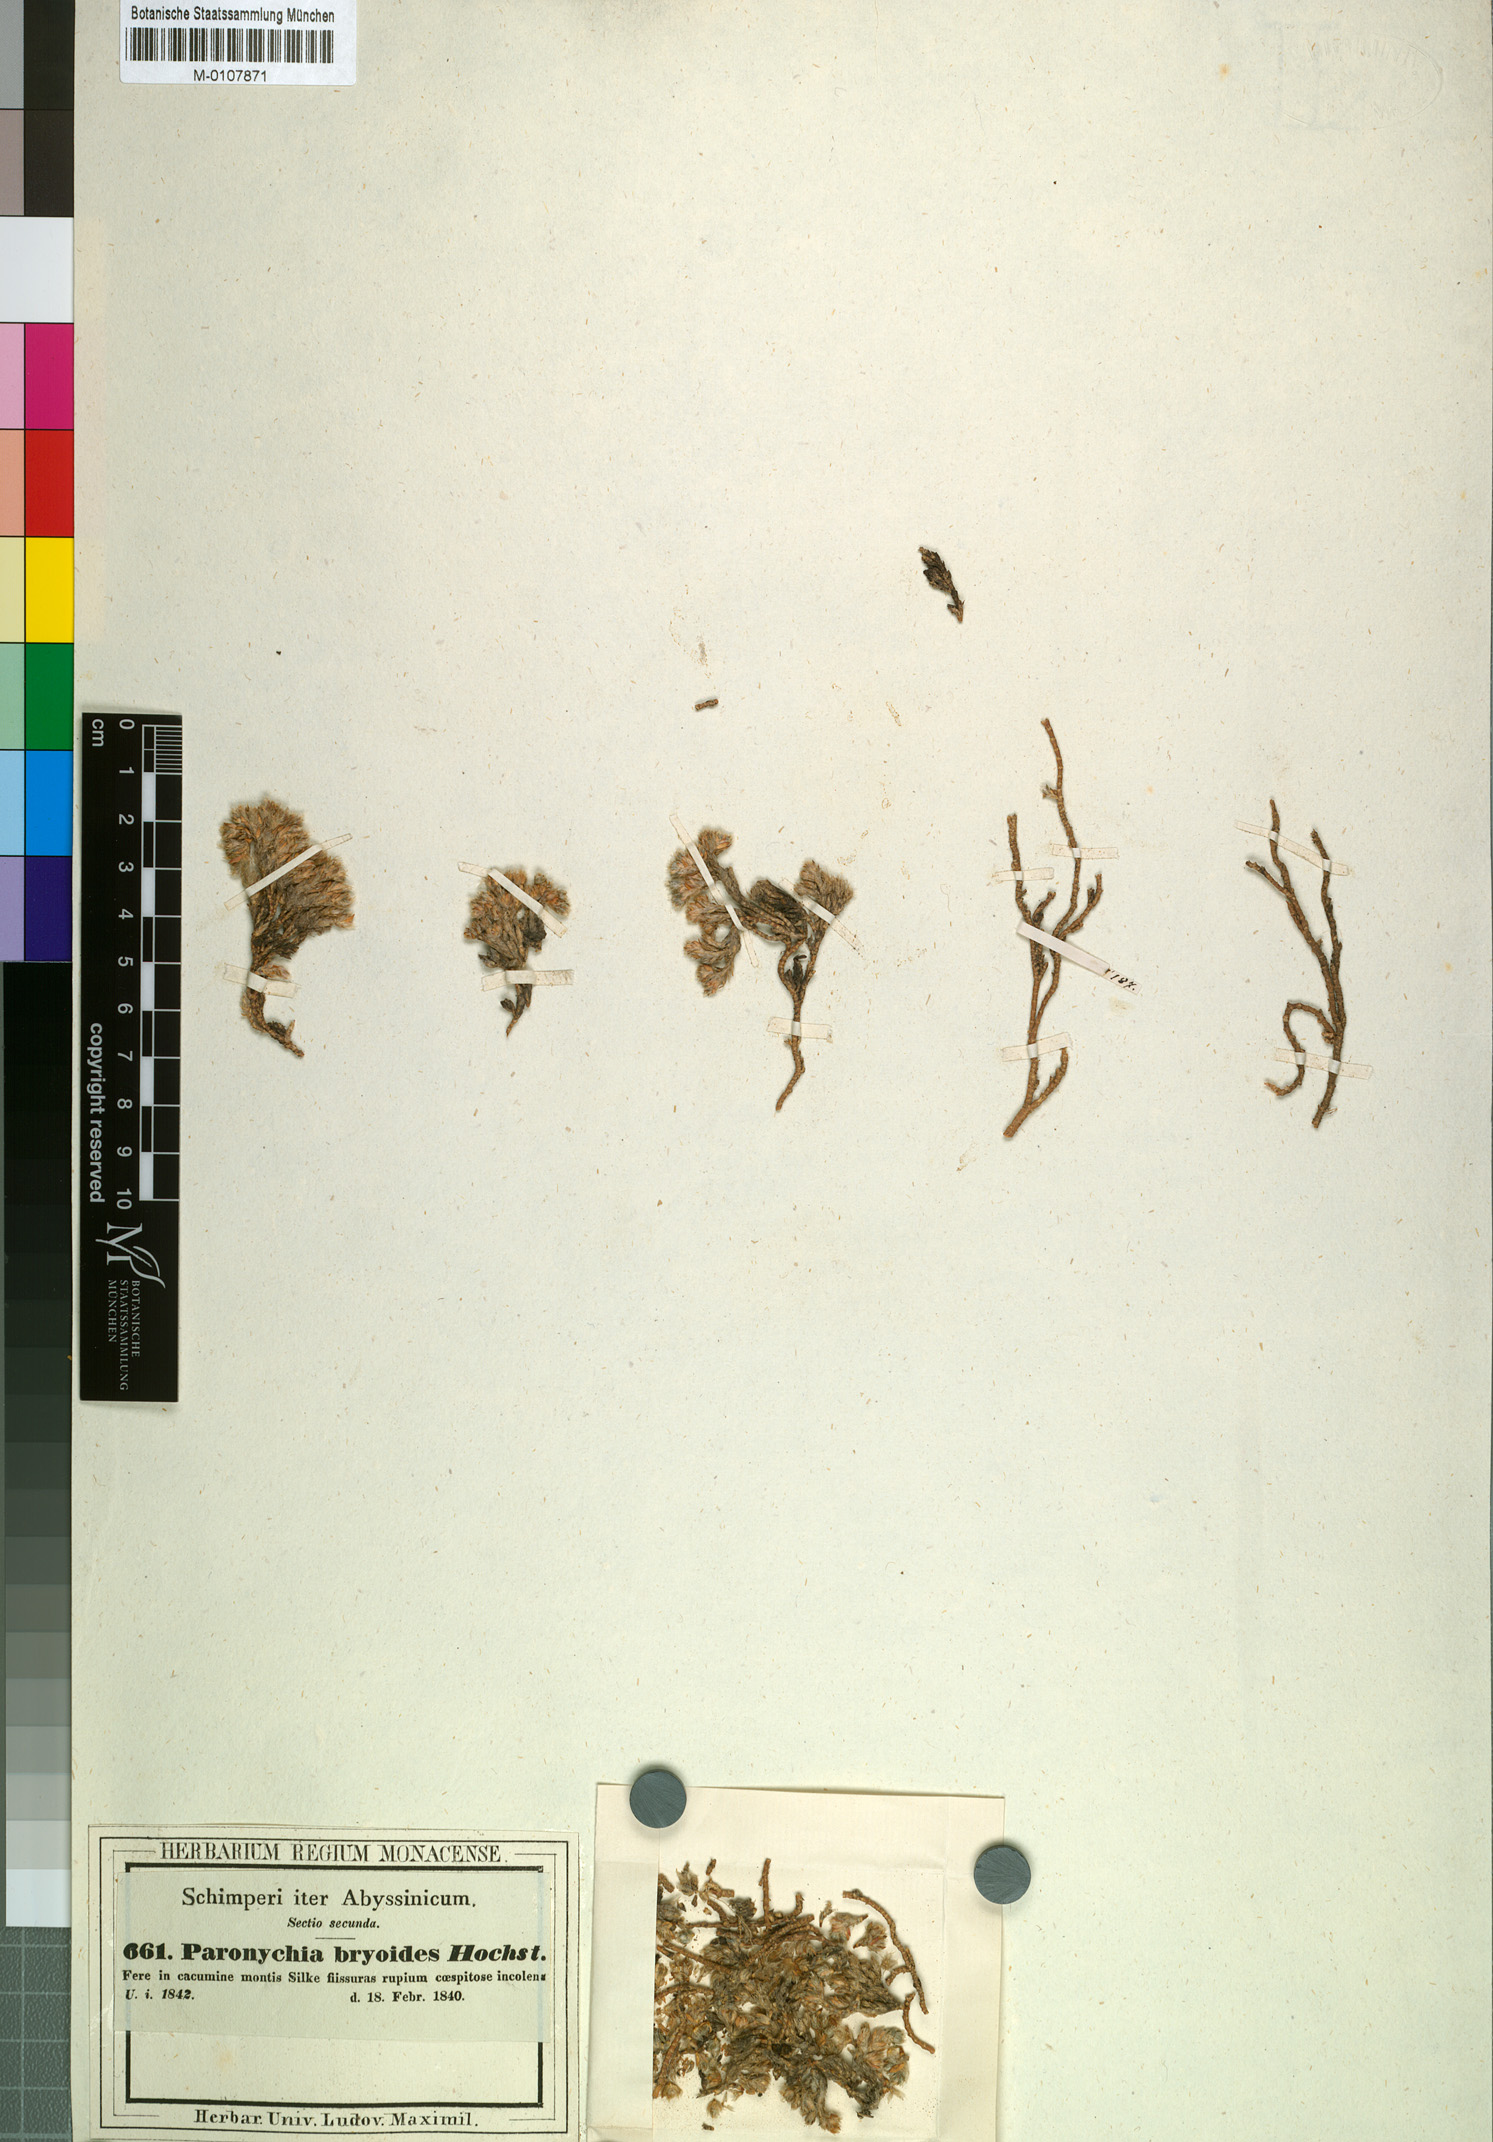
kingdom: Plantae
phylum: Tracheophyta
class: Magnoliopsida
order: Caryophyllales
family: Caryophyllaceae
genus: Paronychia
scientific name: Paronychia bryoides
